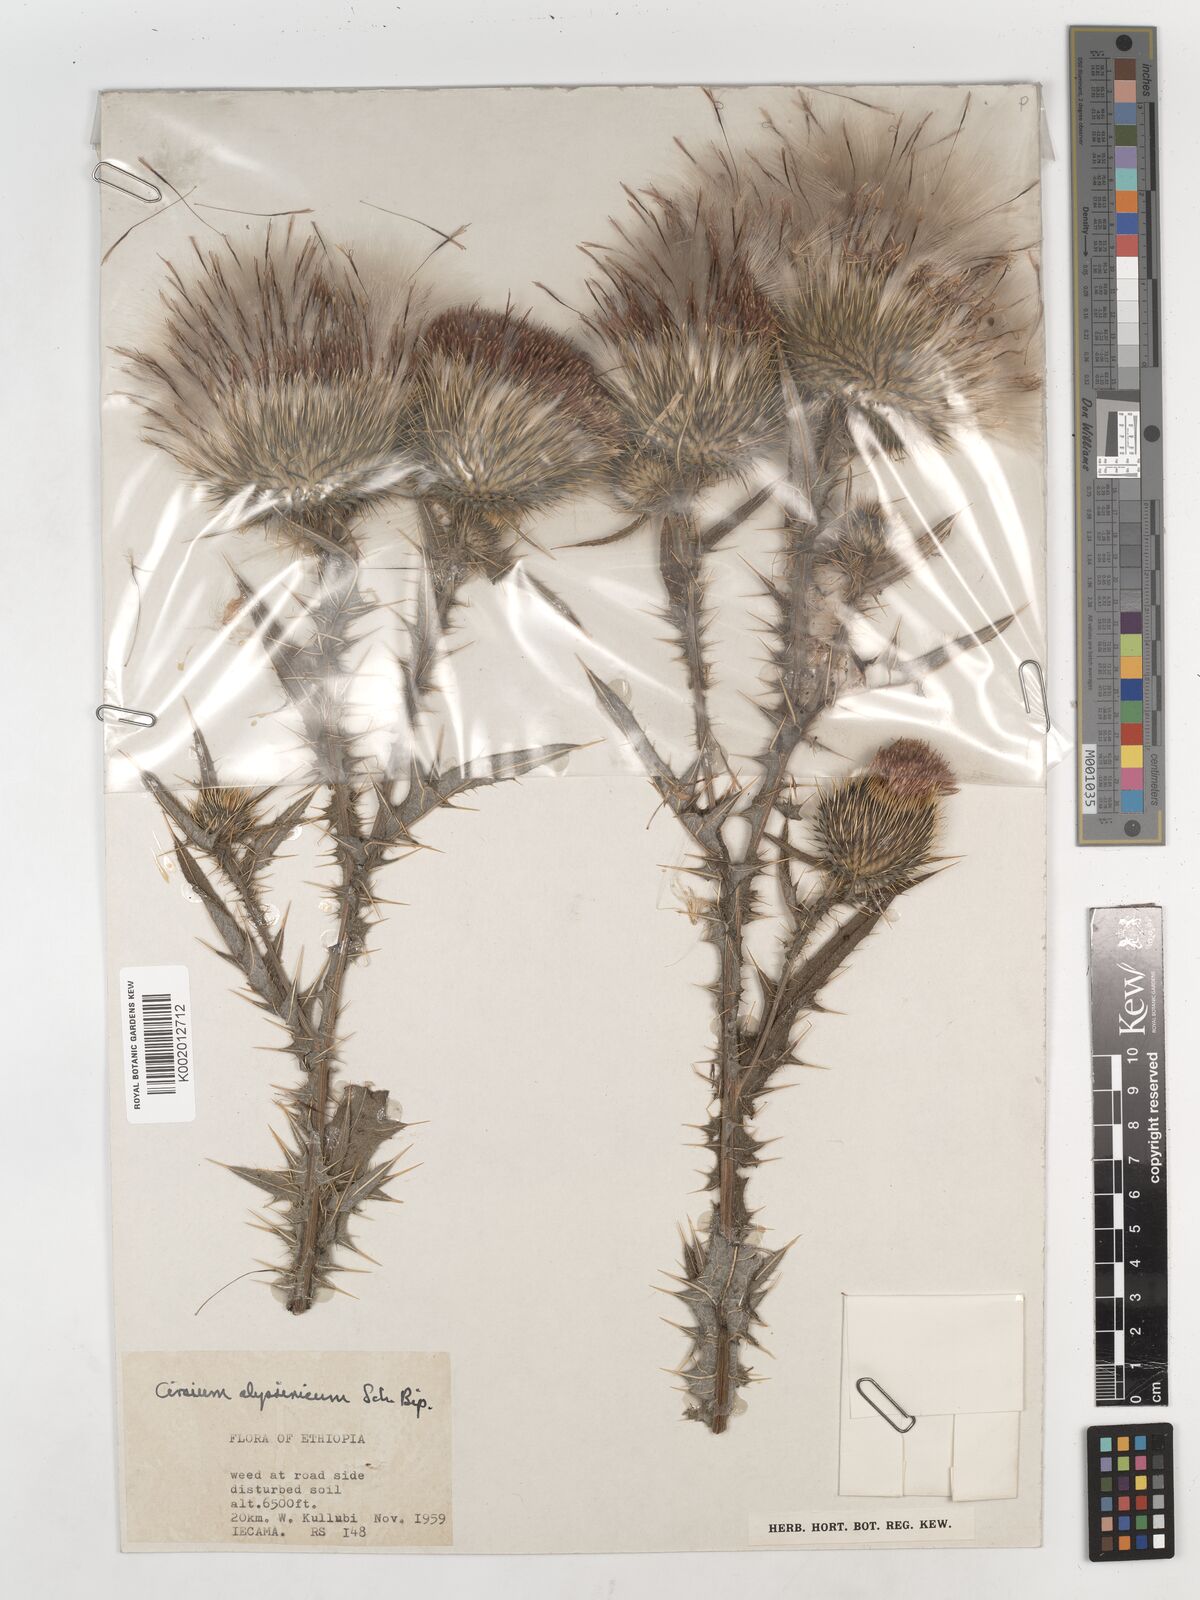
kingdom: Plantae
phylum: Tracheophyta
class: Magnoliopsida
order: Asterales
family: Asteraceae
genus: Cirsium
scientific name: Cirsium vulgare
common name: Bull thistle
